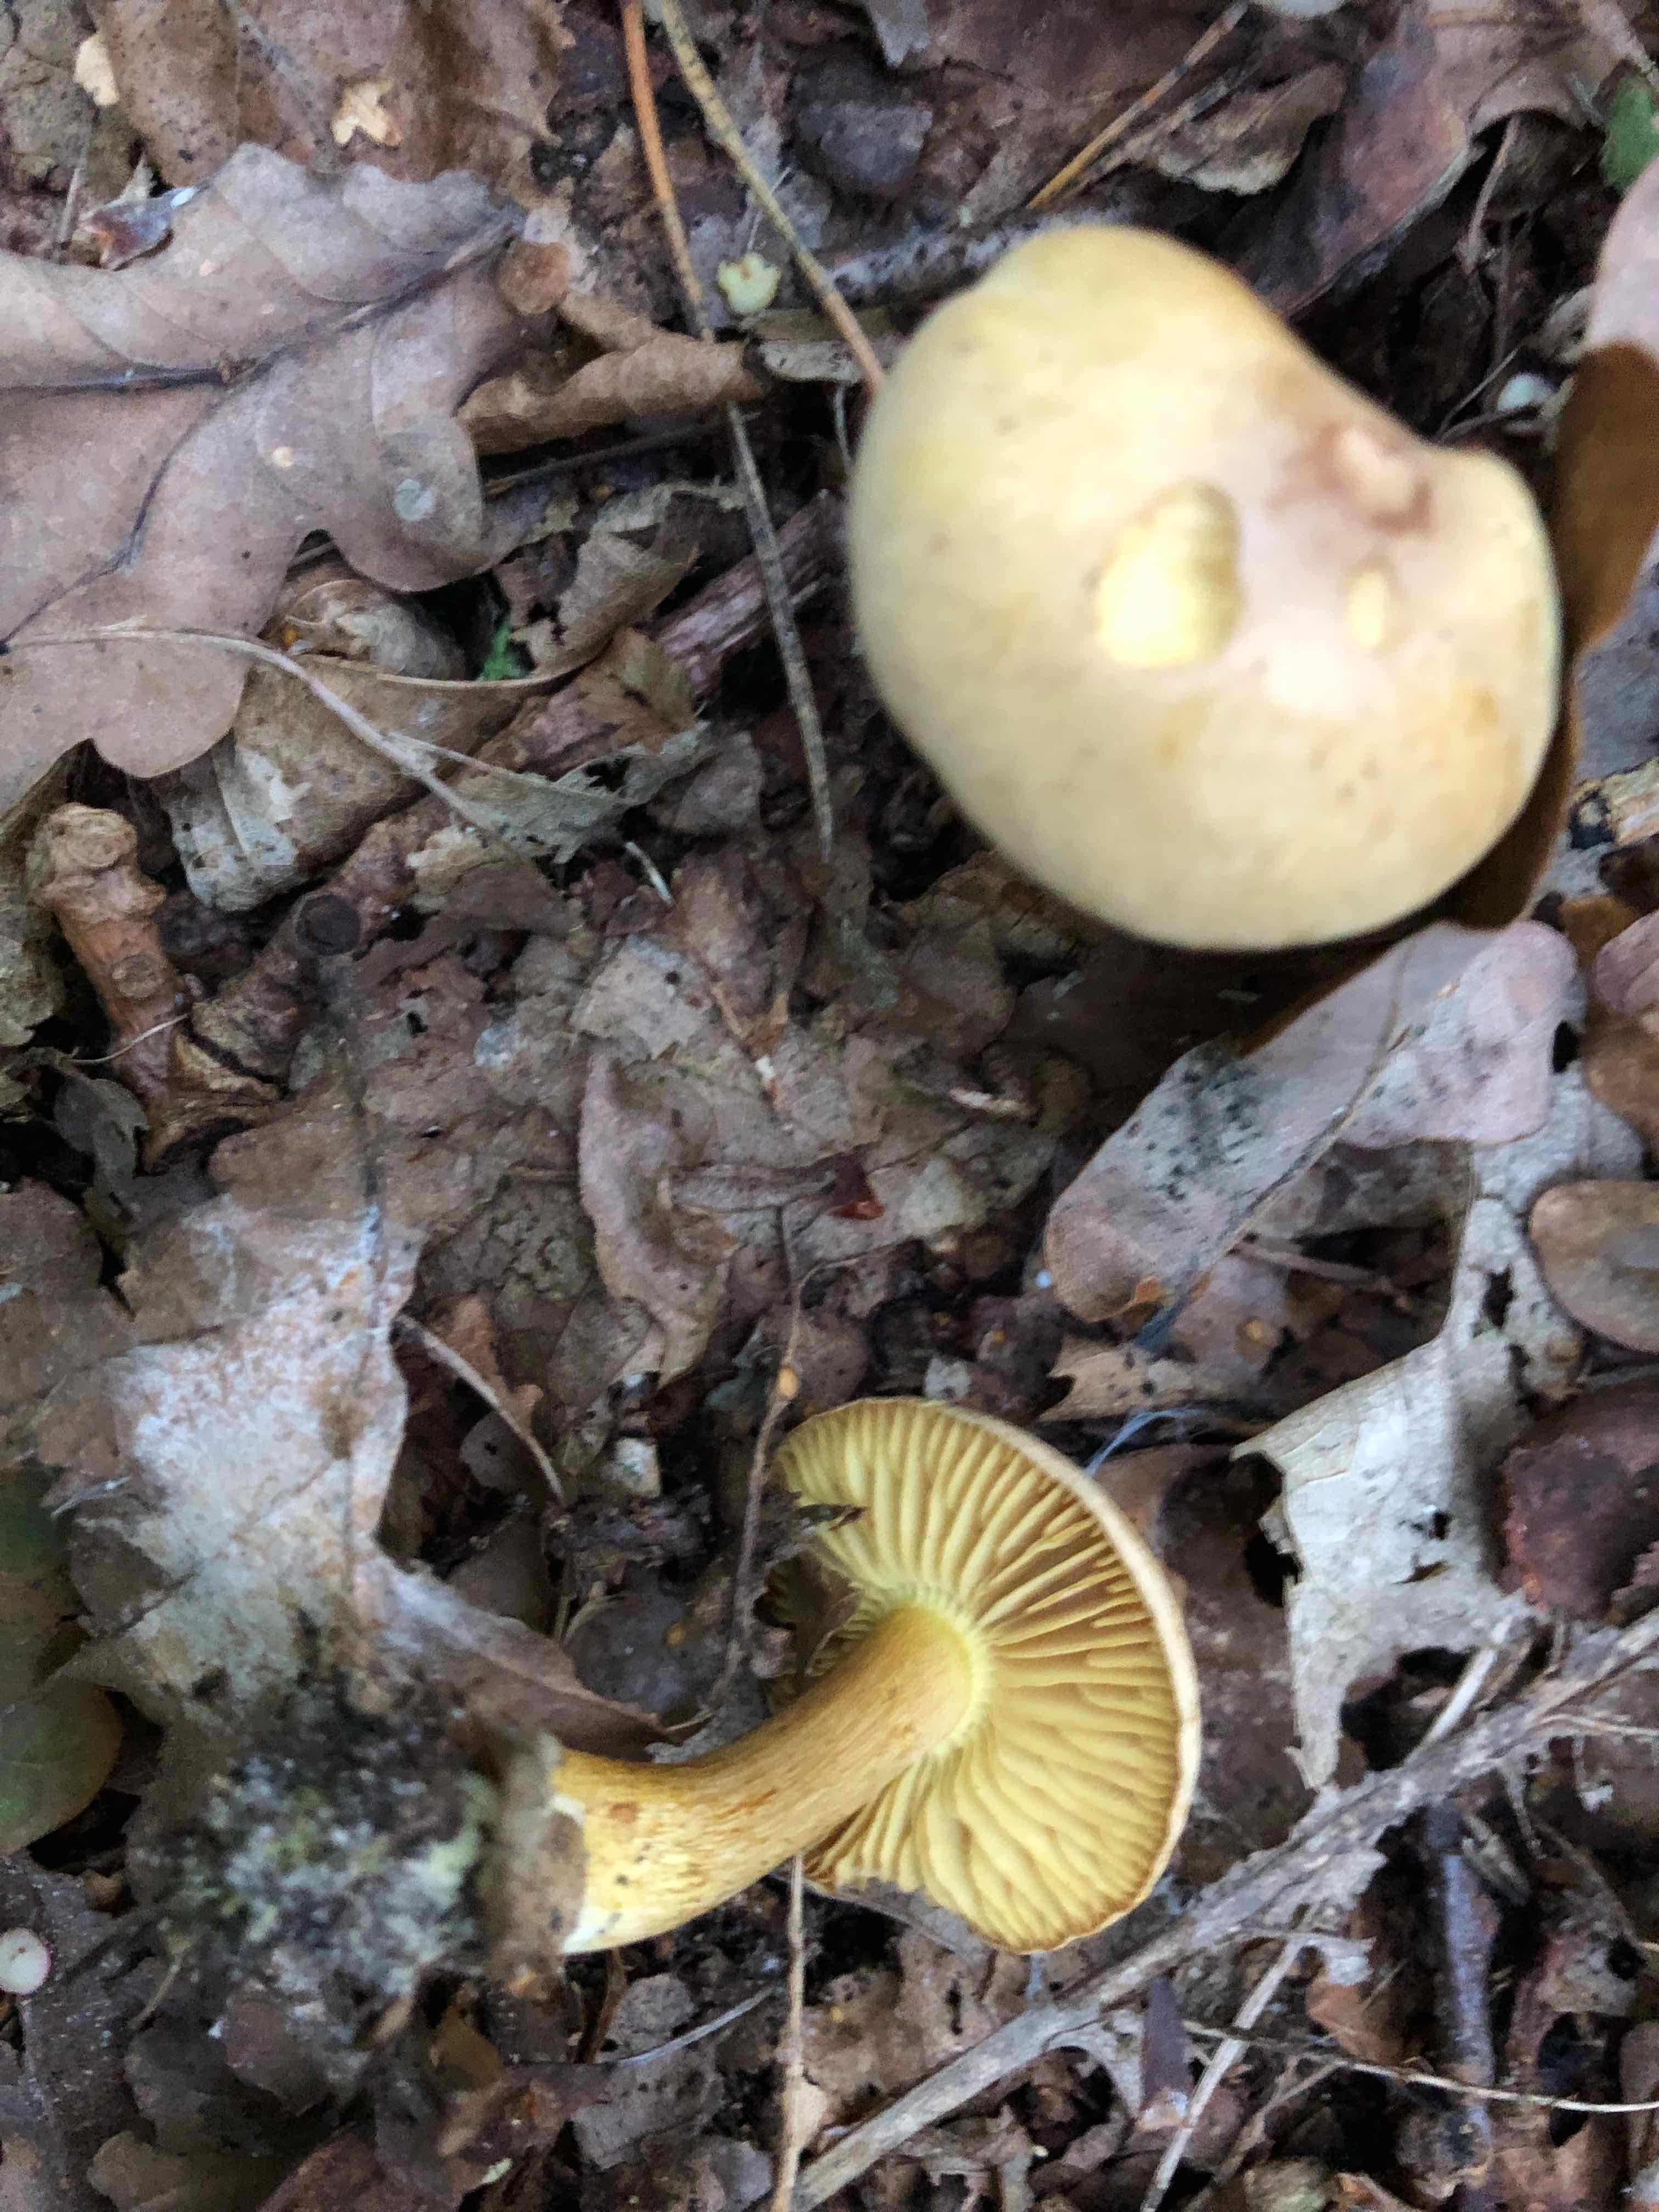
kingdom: Fungi
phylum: Basidiomycota
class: Agaricomycetes
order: Agaricales
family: Tricholomataceae
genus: Tricholoma
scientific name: Tricholoma sulphureum
